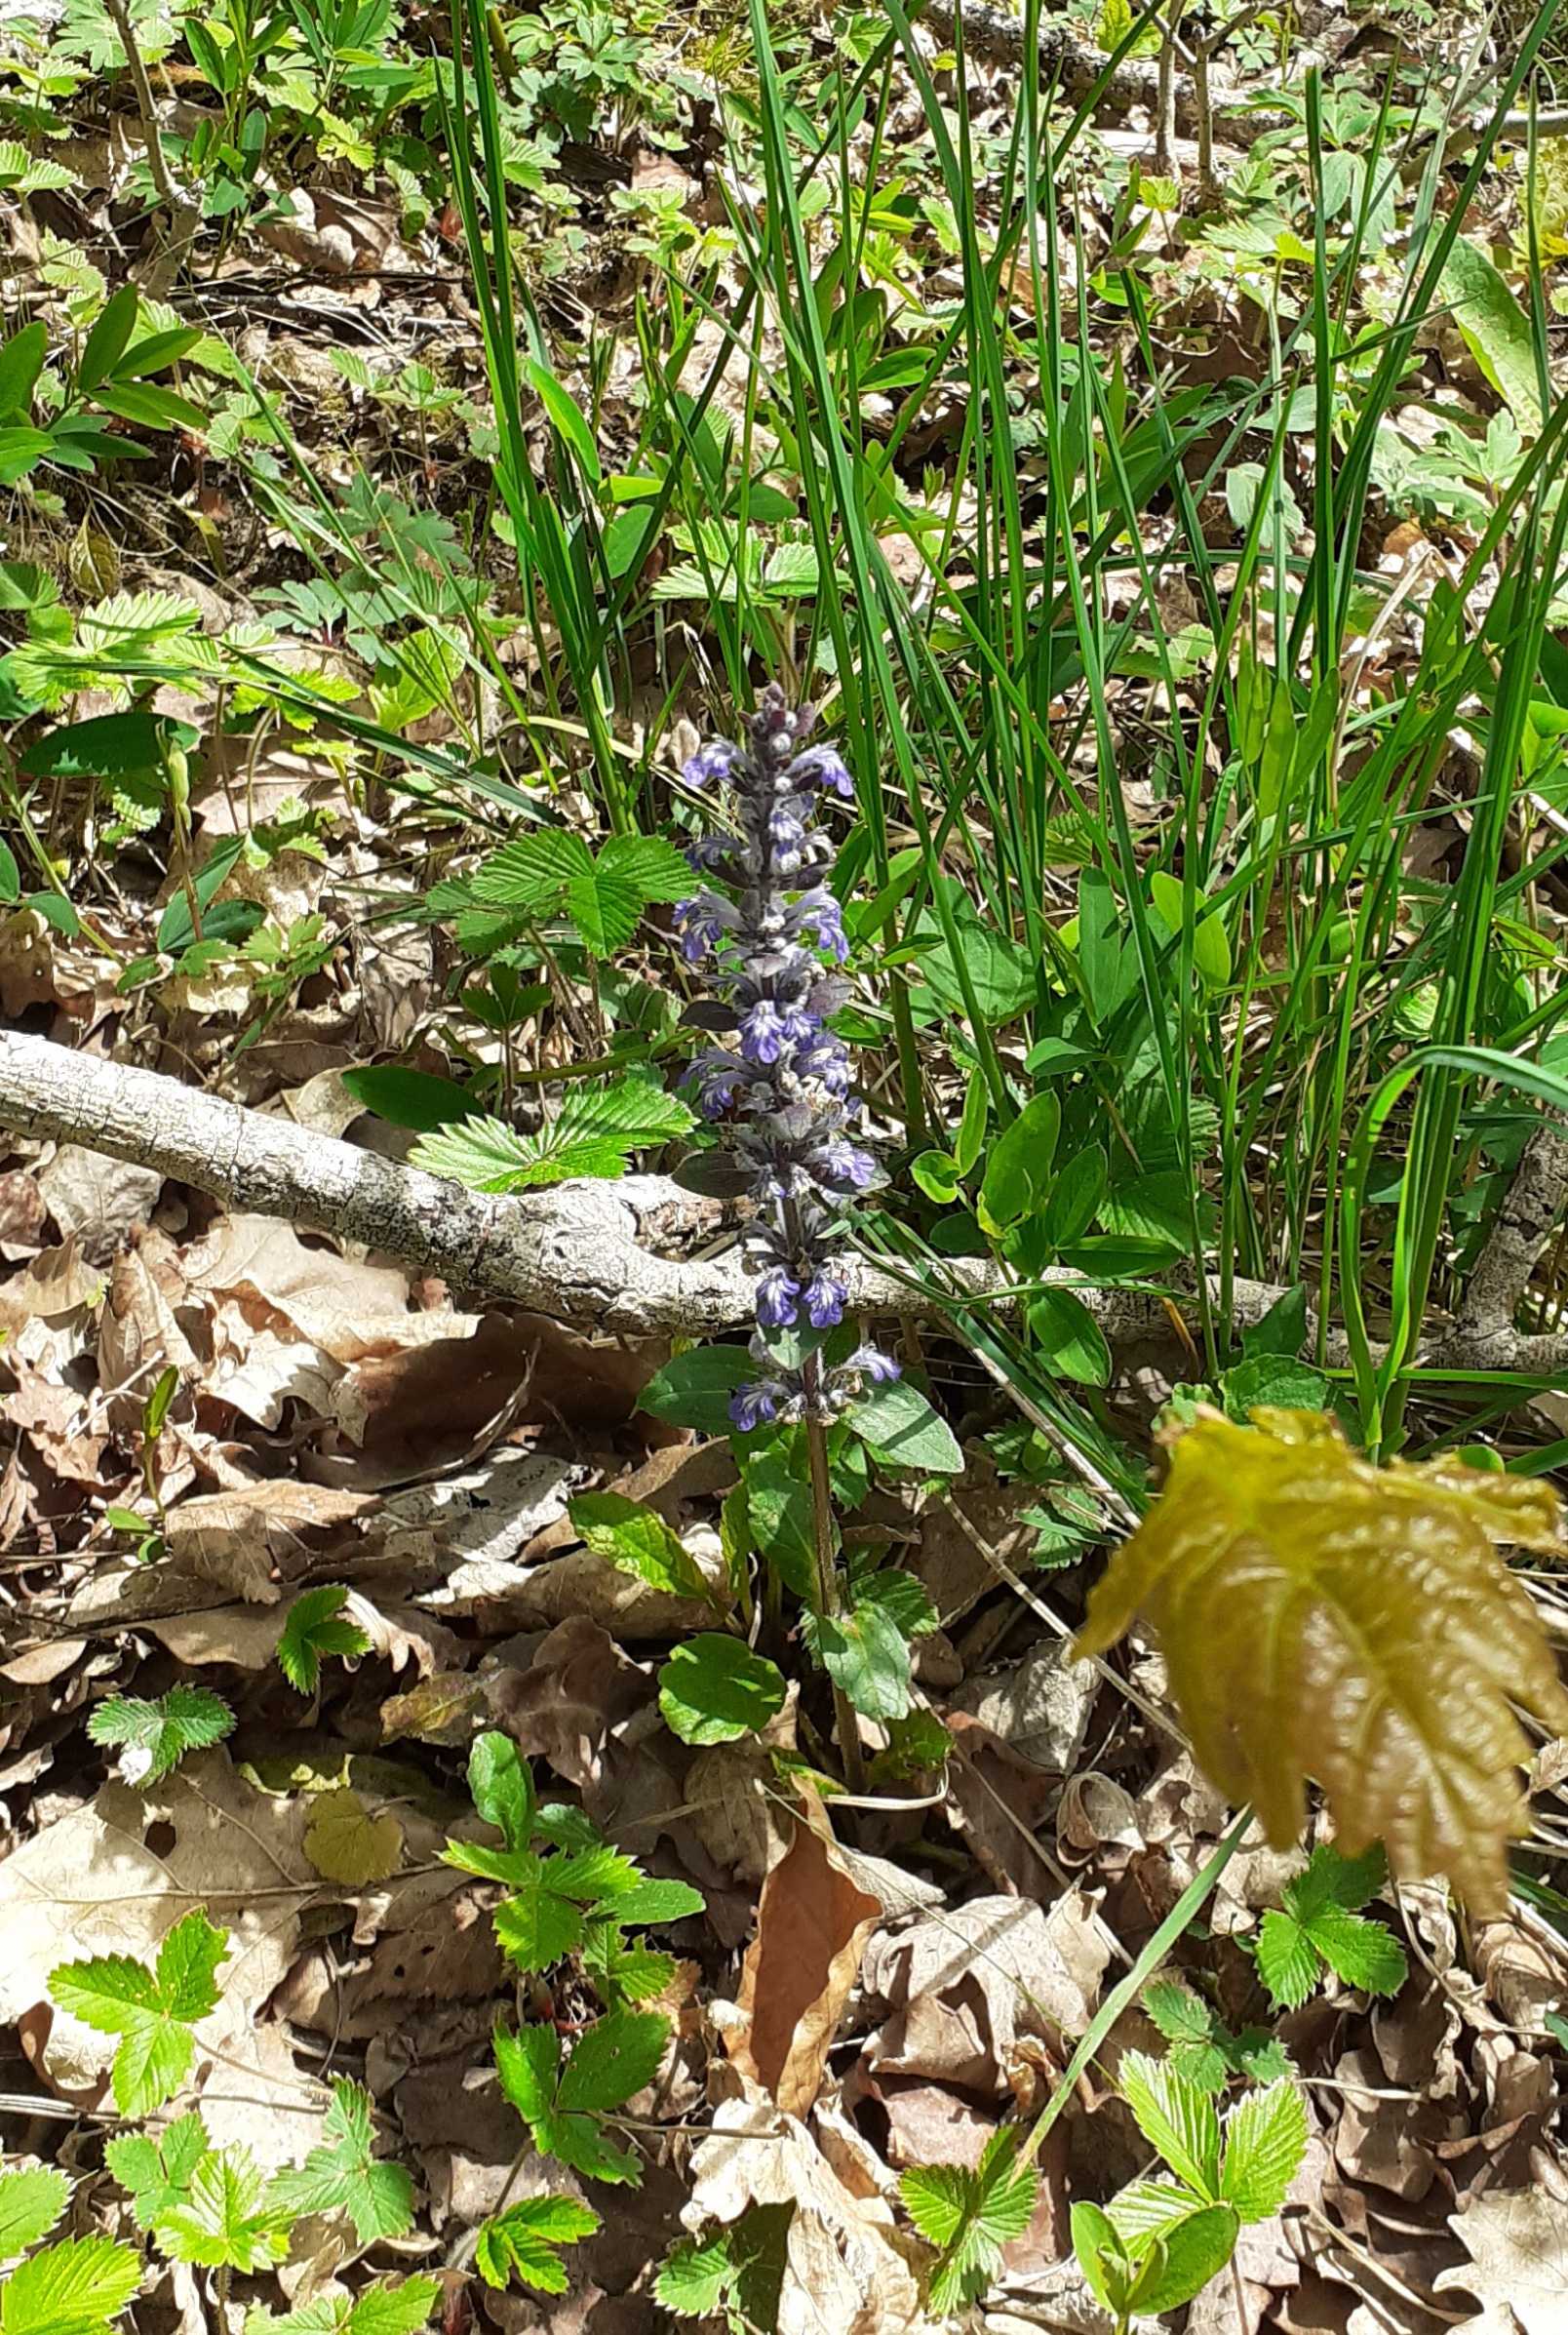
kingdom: Plantae
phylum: Tracheophyta
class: Magnoliopsida
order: Lamiales
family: Lamiaceae
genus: Ajuga
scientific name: Ajuga reptans
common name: Krybende læbeløs
